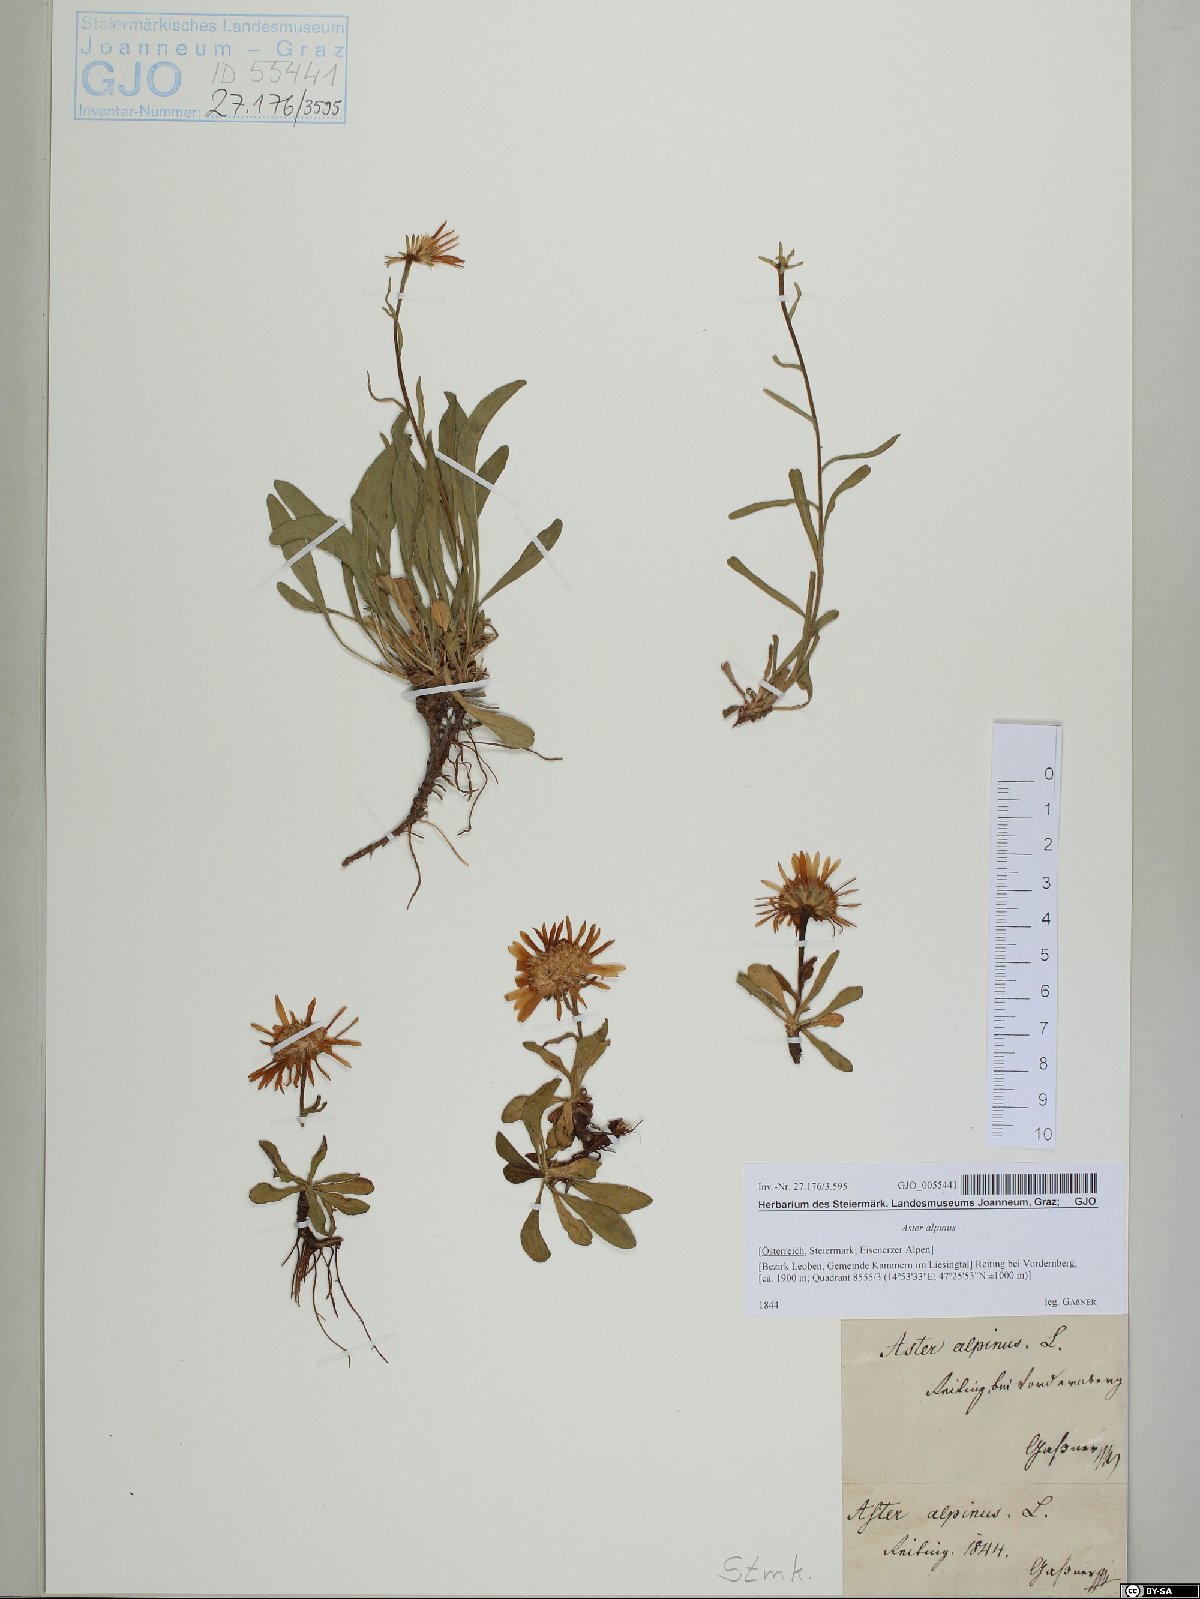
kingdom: Plantae
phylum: Tracheophyta
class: Magnoliopsida
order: Asterales
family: Asteraceae
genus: Aster
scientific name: Aster alpinus
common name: Alpine aster
